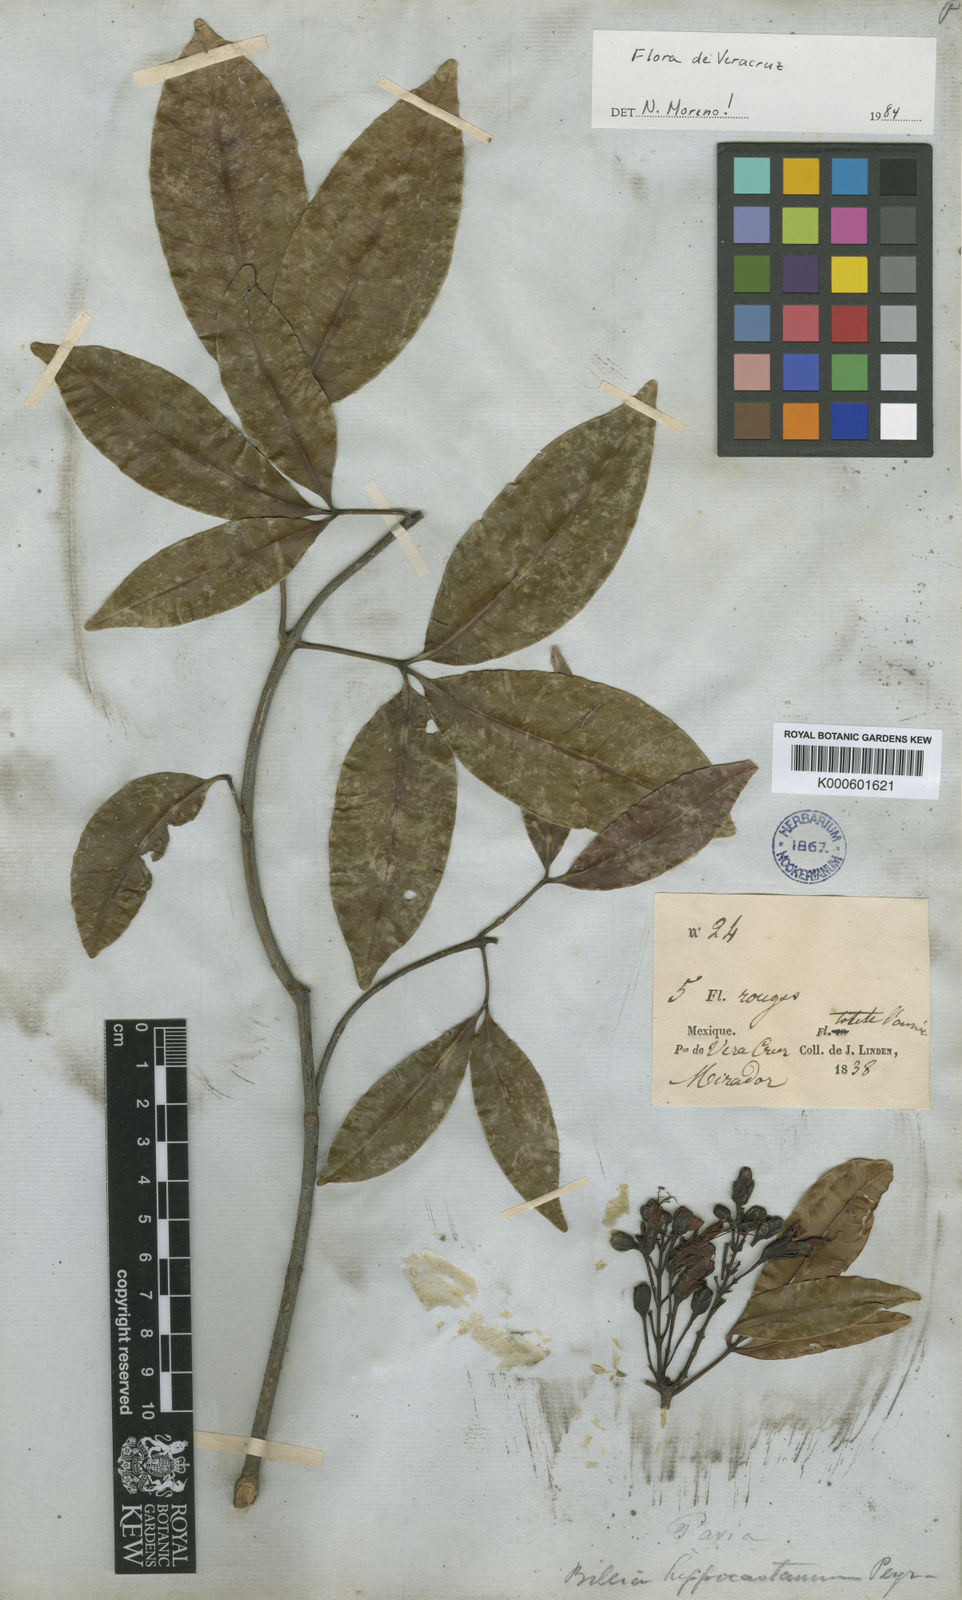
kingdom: Plantae
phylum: Tracheophyta
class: Magnoliopsida
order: Sapindales
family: Sapindaceae
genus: Billia
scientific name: Billia rosea
